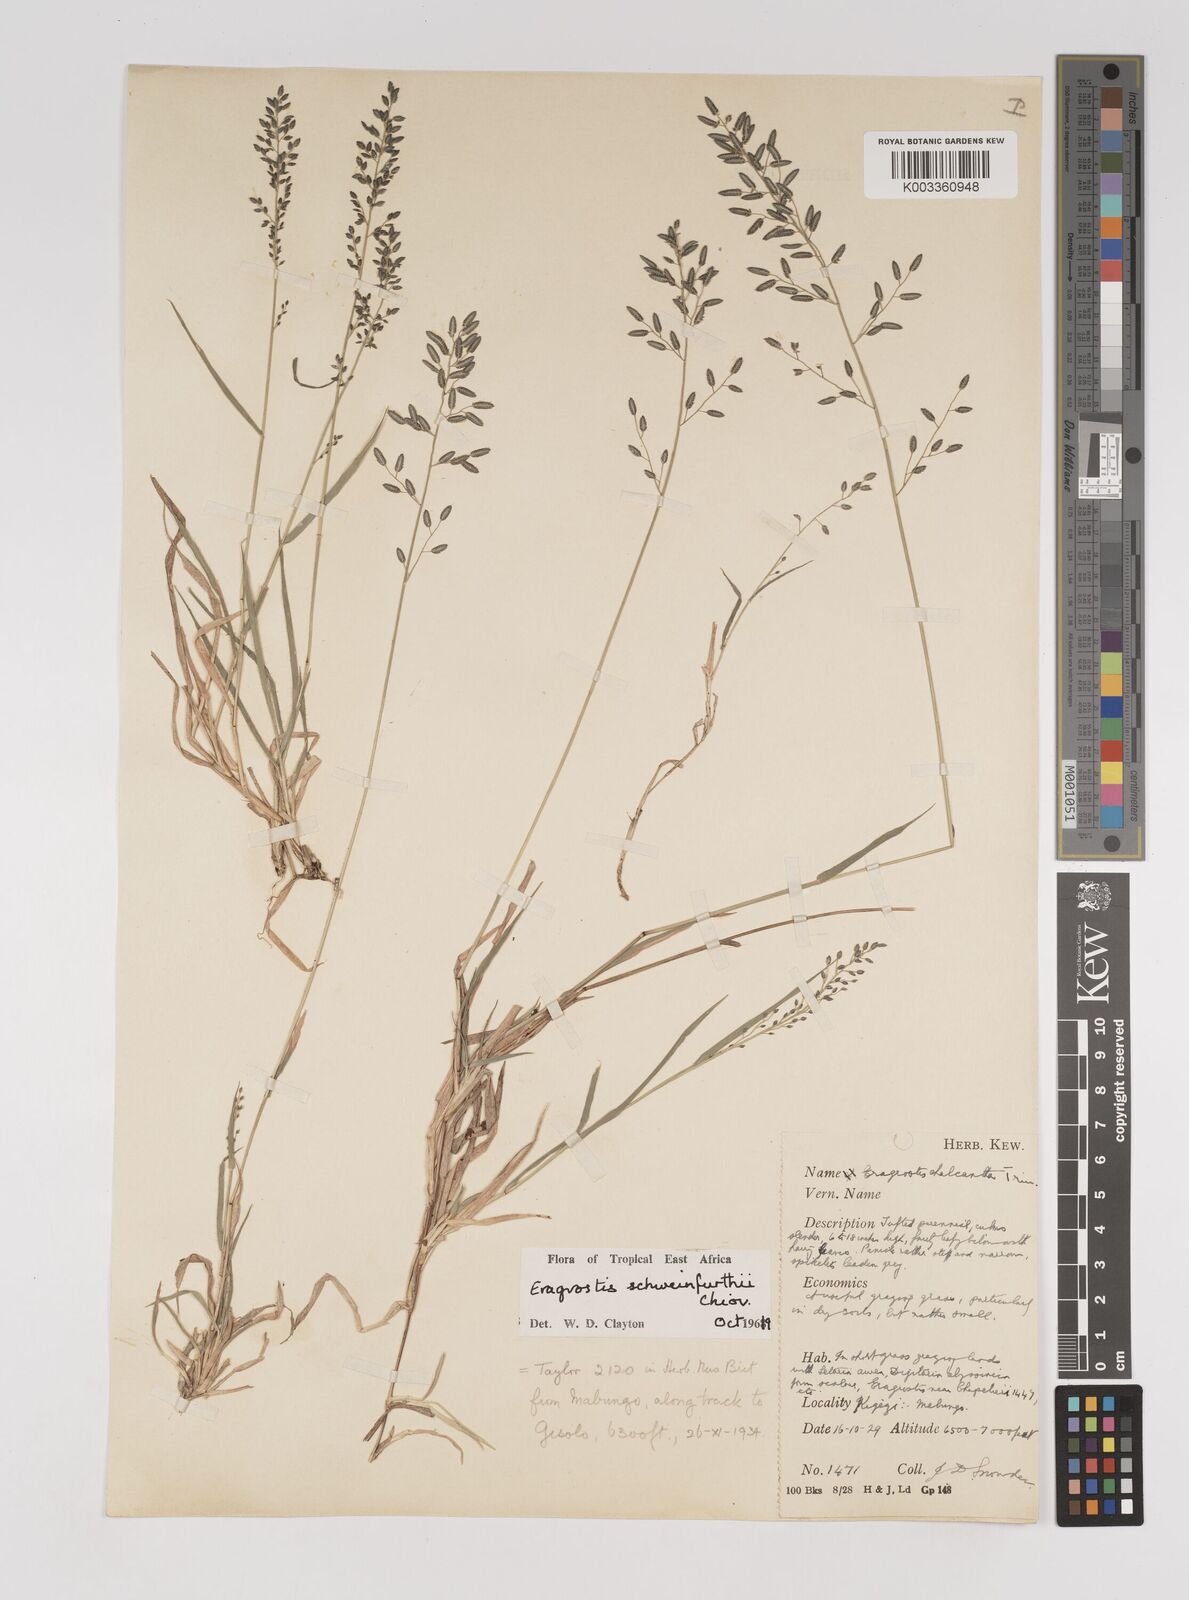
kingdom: Plantae
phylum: Tracheophyta
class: Liliopsida
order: Poales
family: Poaceae
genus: Eragrostis
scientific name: Eragrostis schweinfurthii
